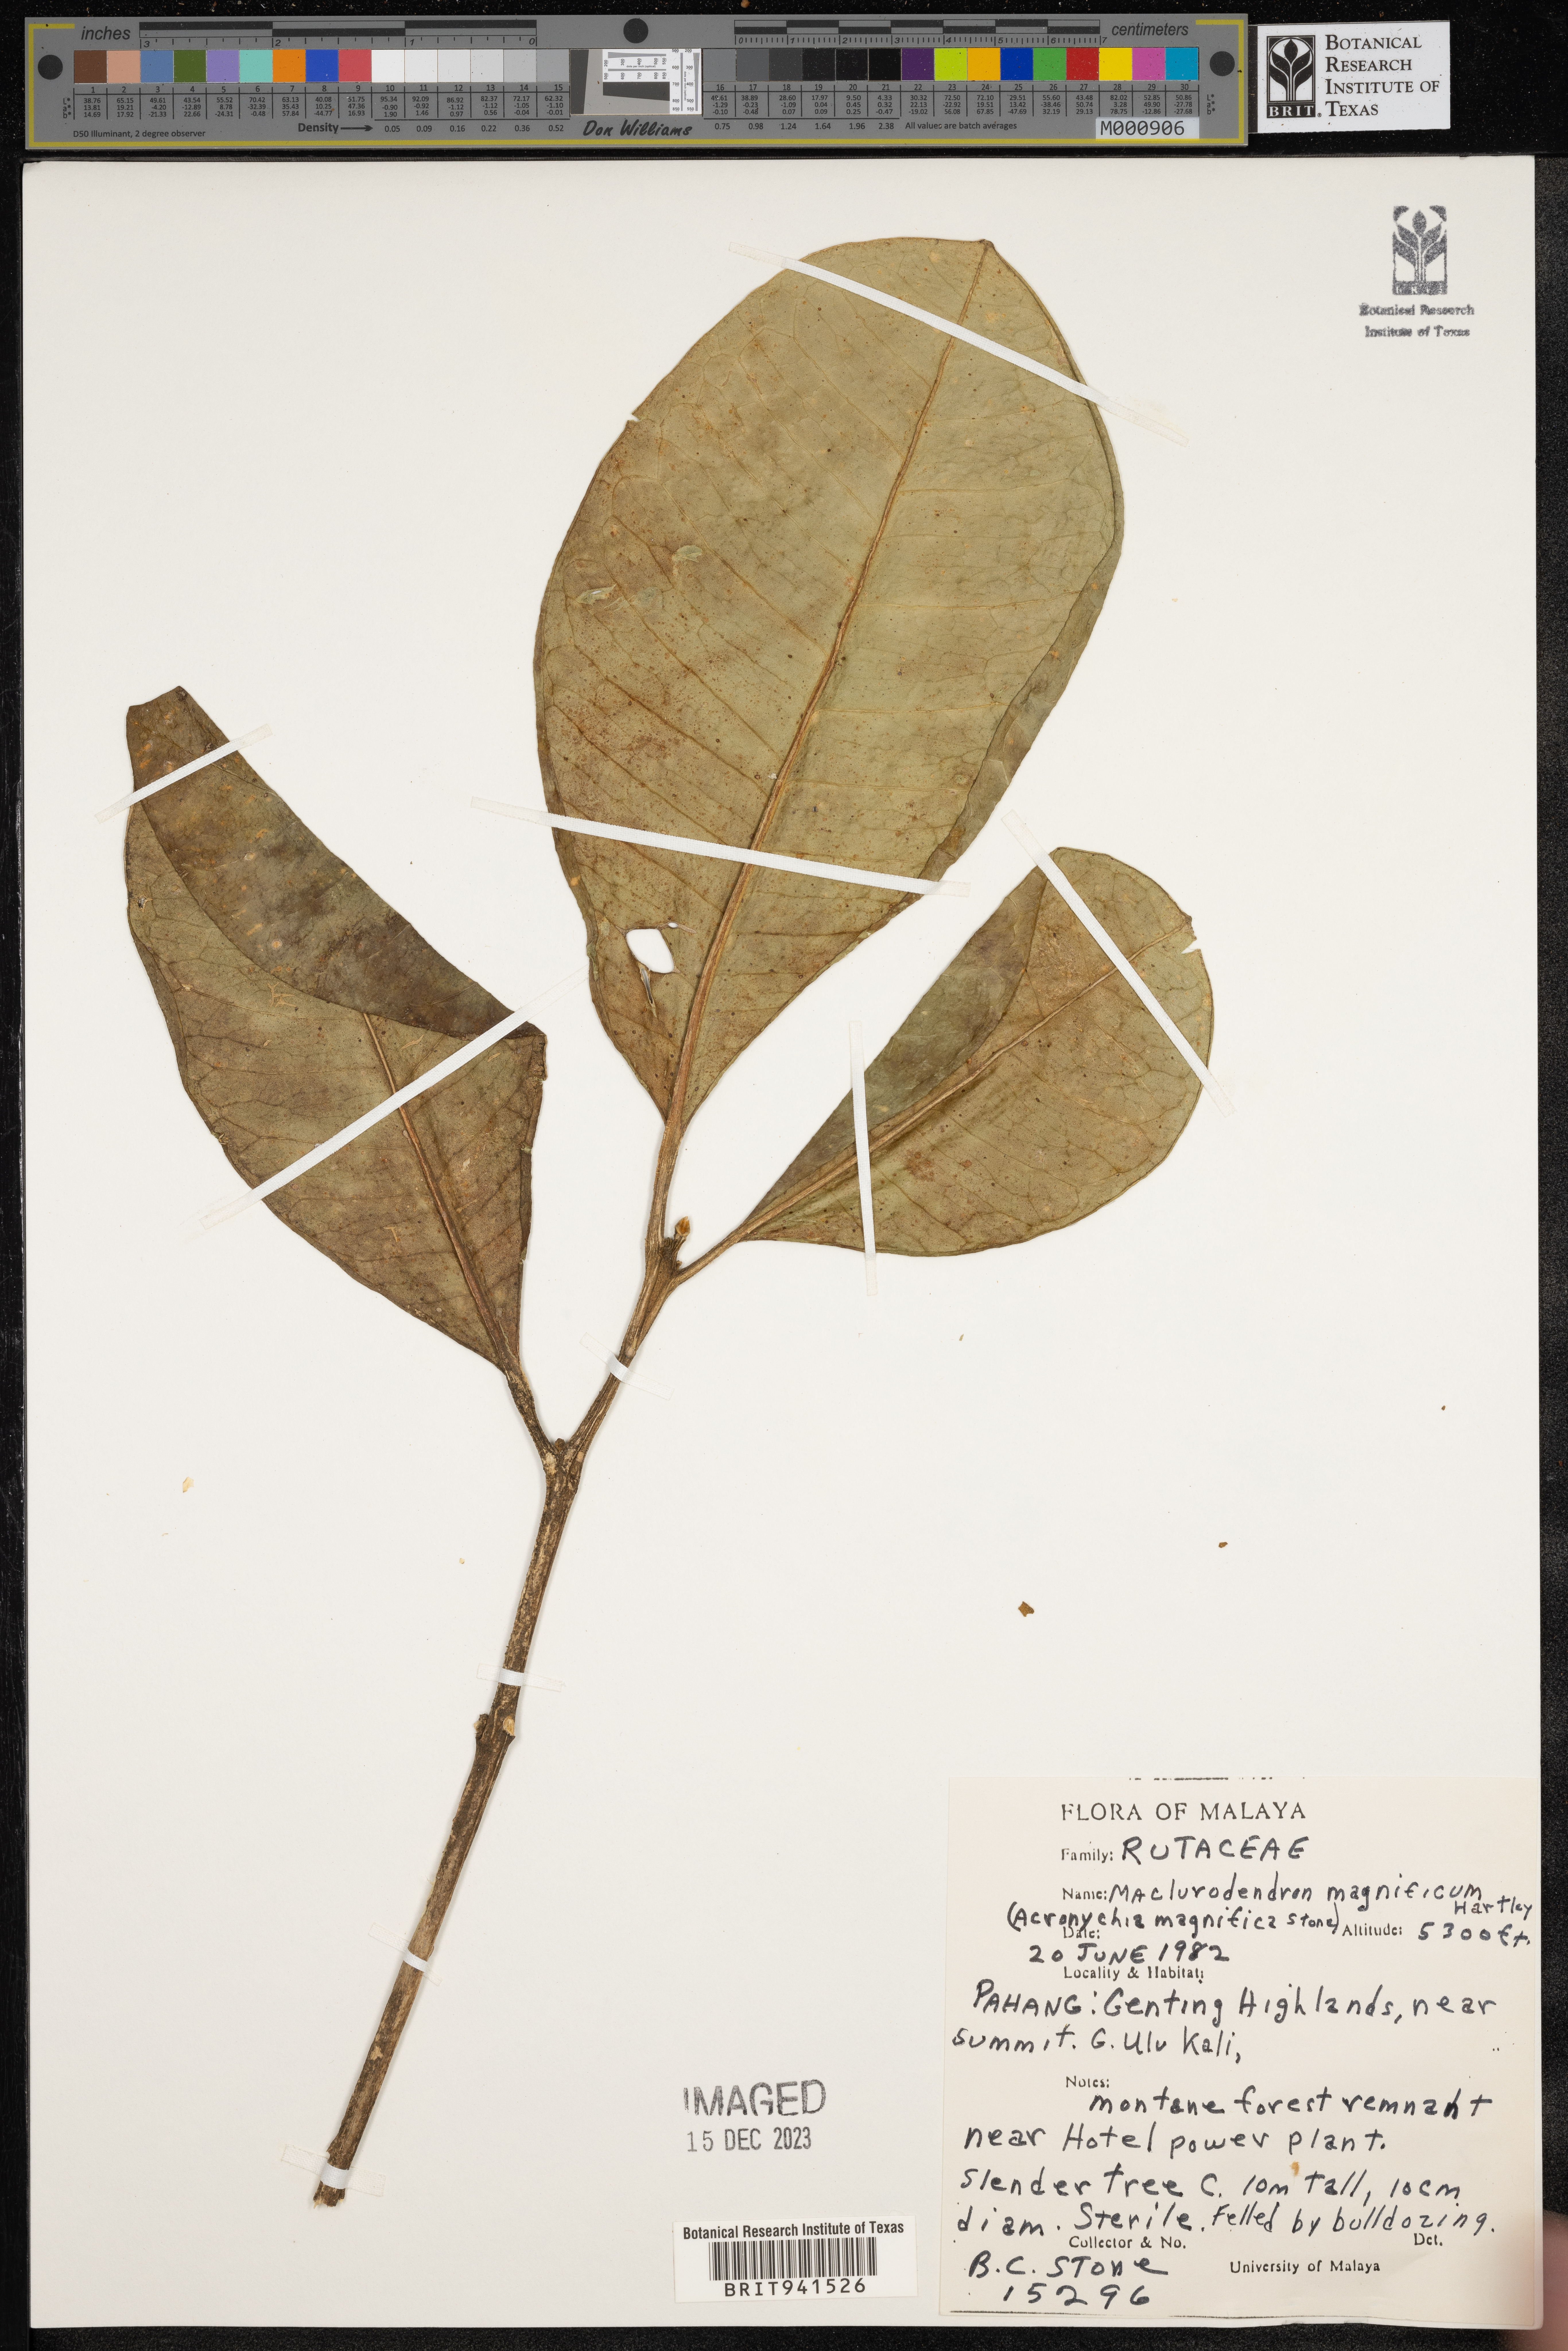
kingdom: Plantae
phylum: Tracheophyta
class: Magnoliopsida
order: Sapindales
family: Rutaceae
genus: Maclurodendron
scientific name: Maclurodendron
